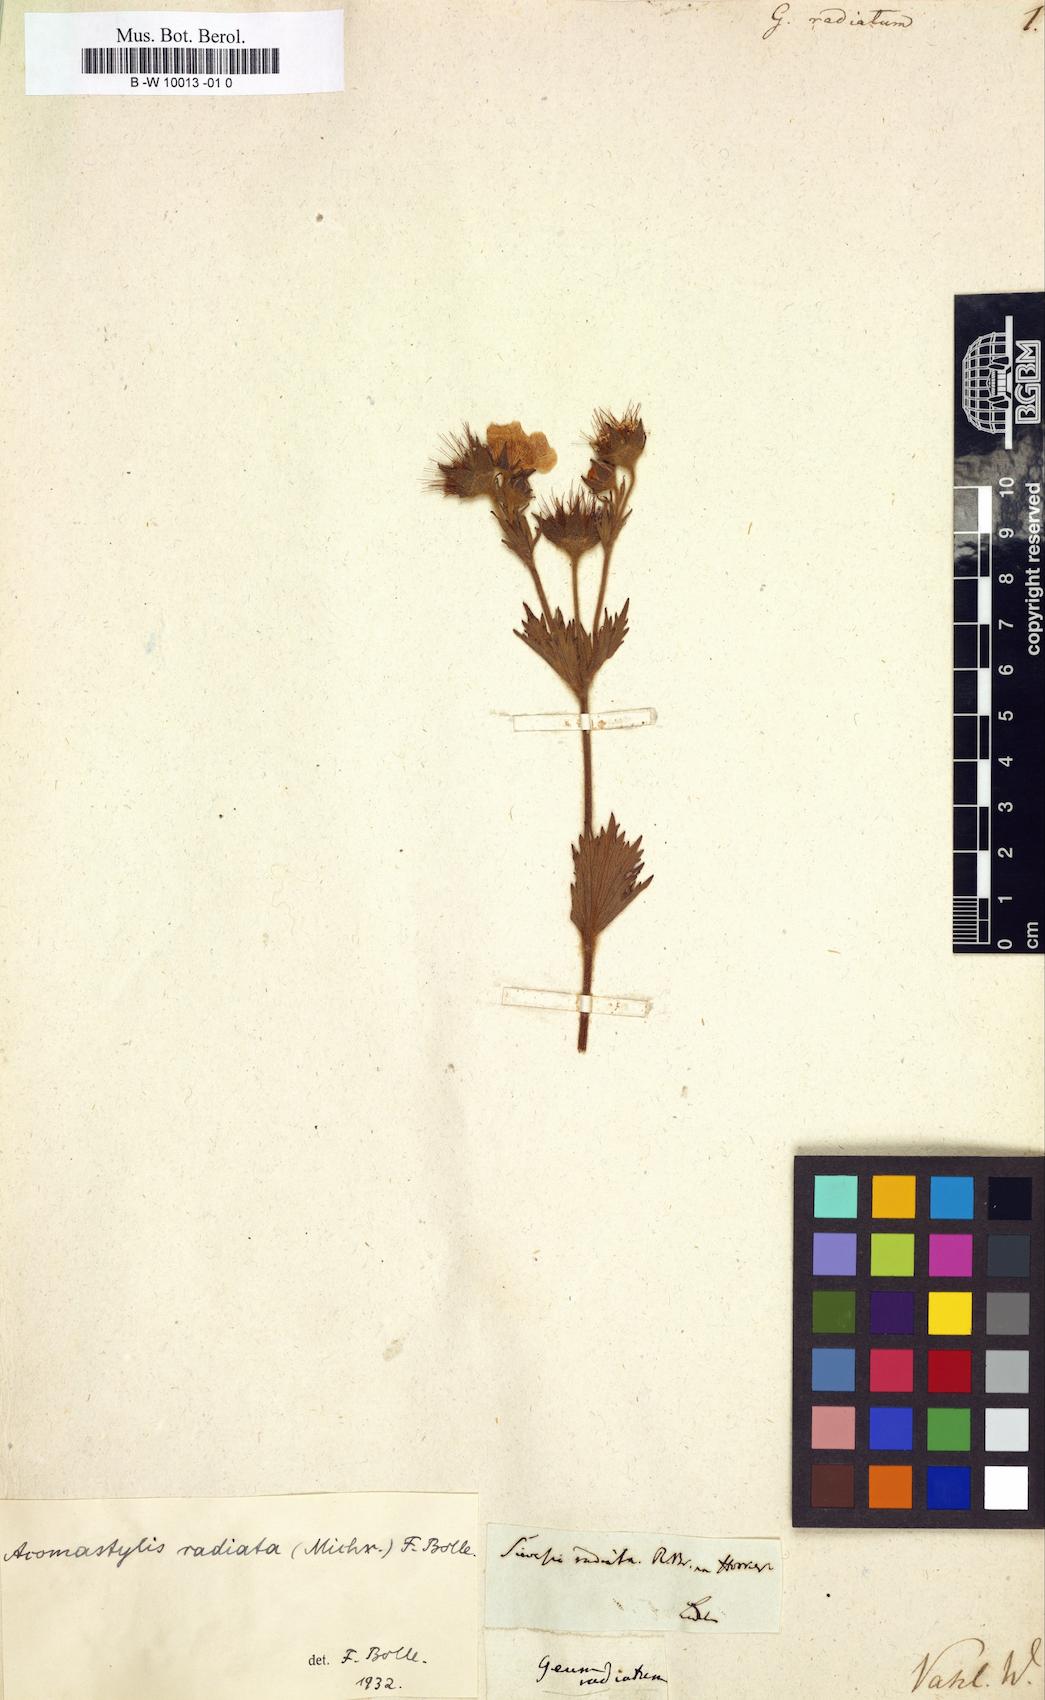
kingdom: Plantae
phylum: Tracheophyta
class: Magnoliopsida
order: Rosales
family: Rosaceae
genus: Geum
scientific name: Geum radiatum
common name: Spreaded avens
